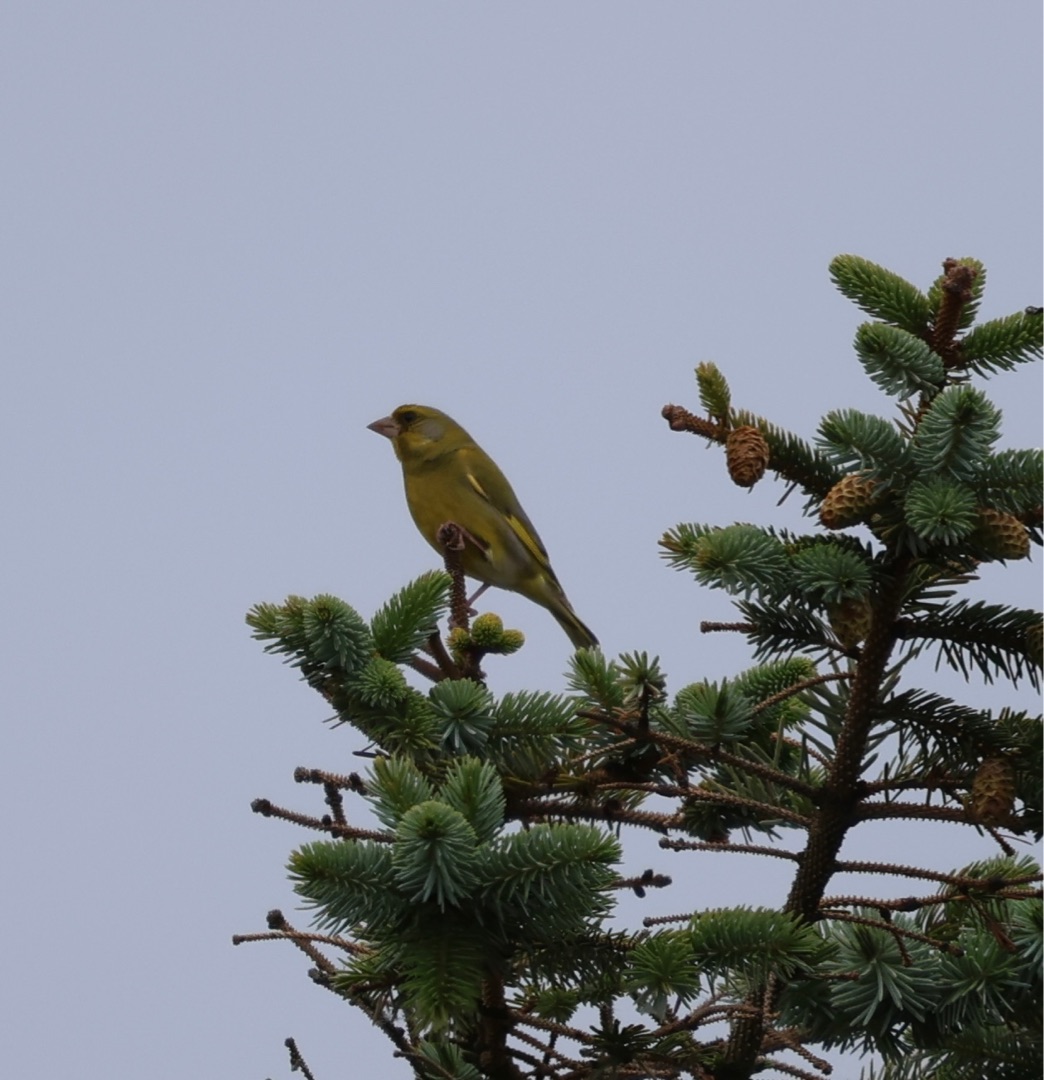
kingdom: Plantae
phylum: Tracheophyta
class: Liliopsida
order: Poales
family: Poaceae
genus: Chloris
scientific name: Chloris chloris
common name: Grønirisk
